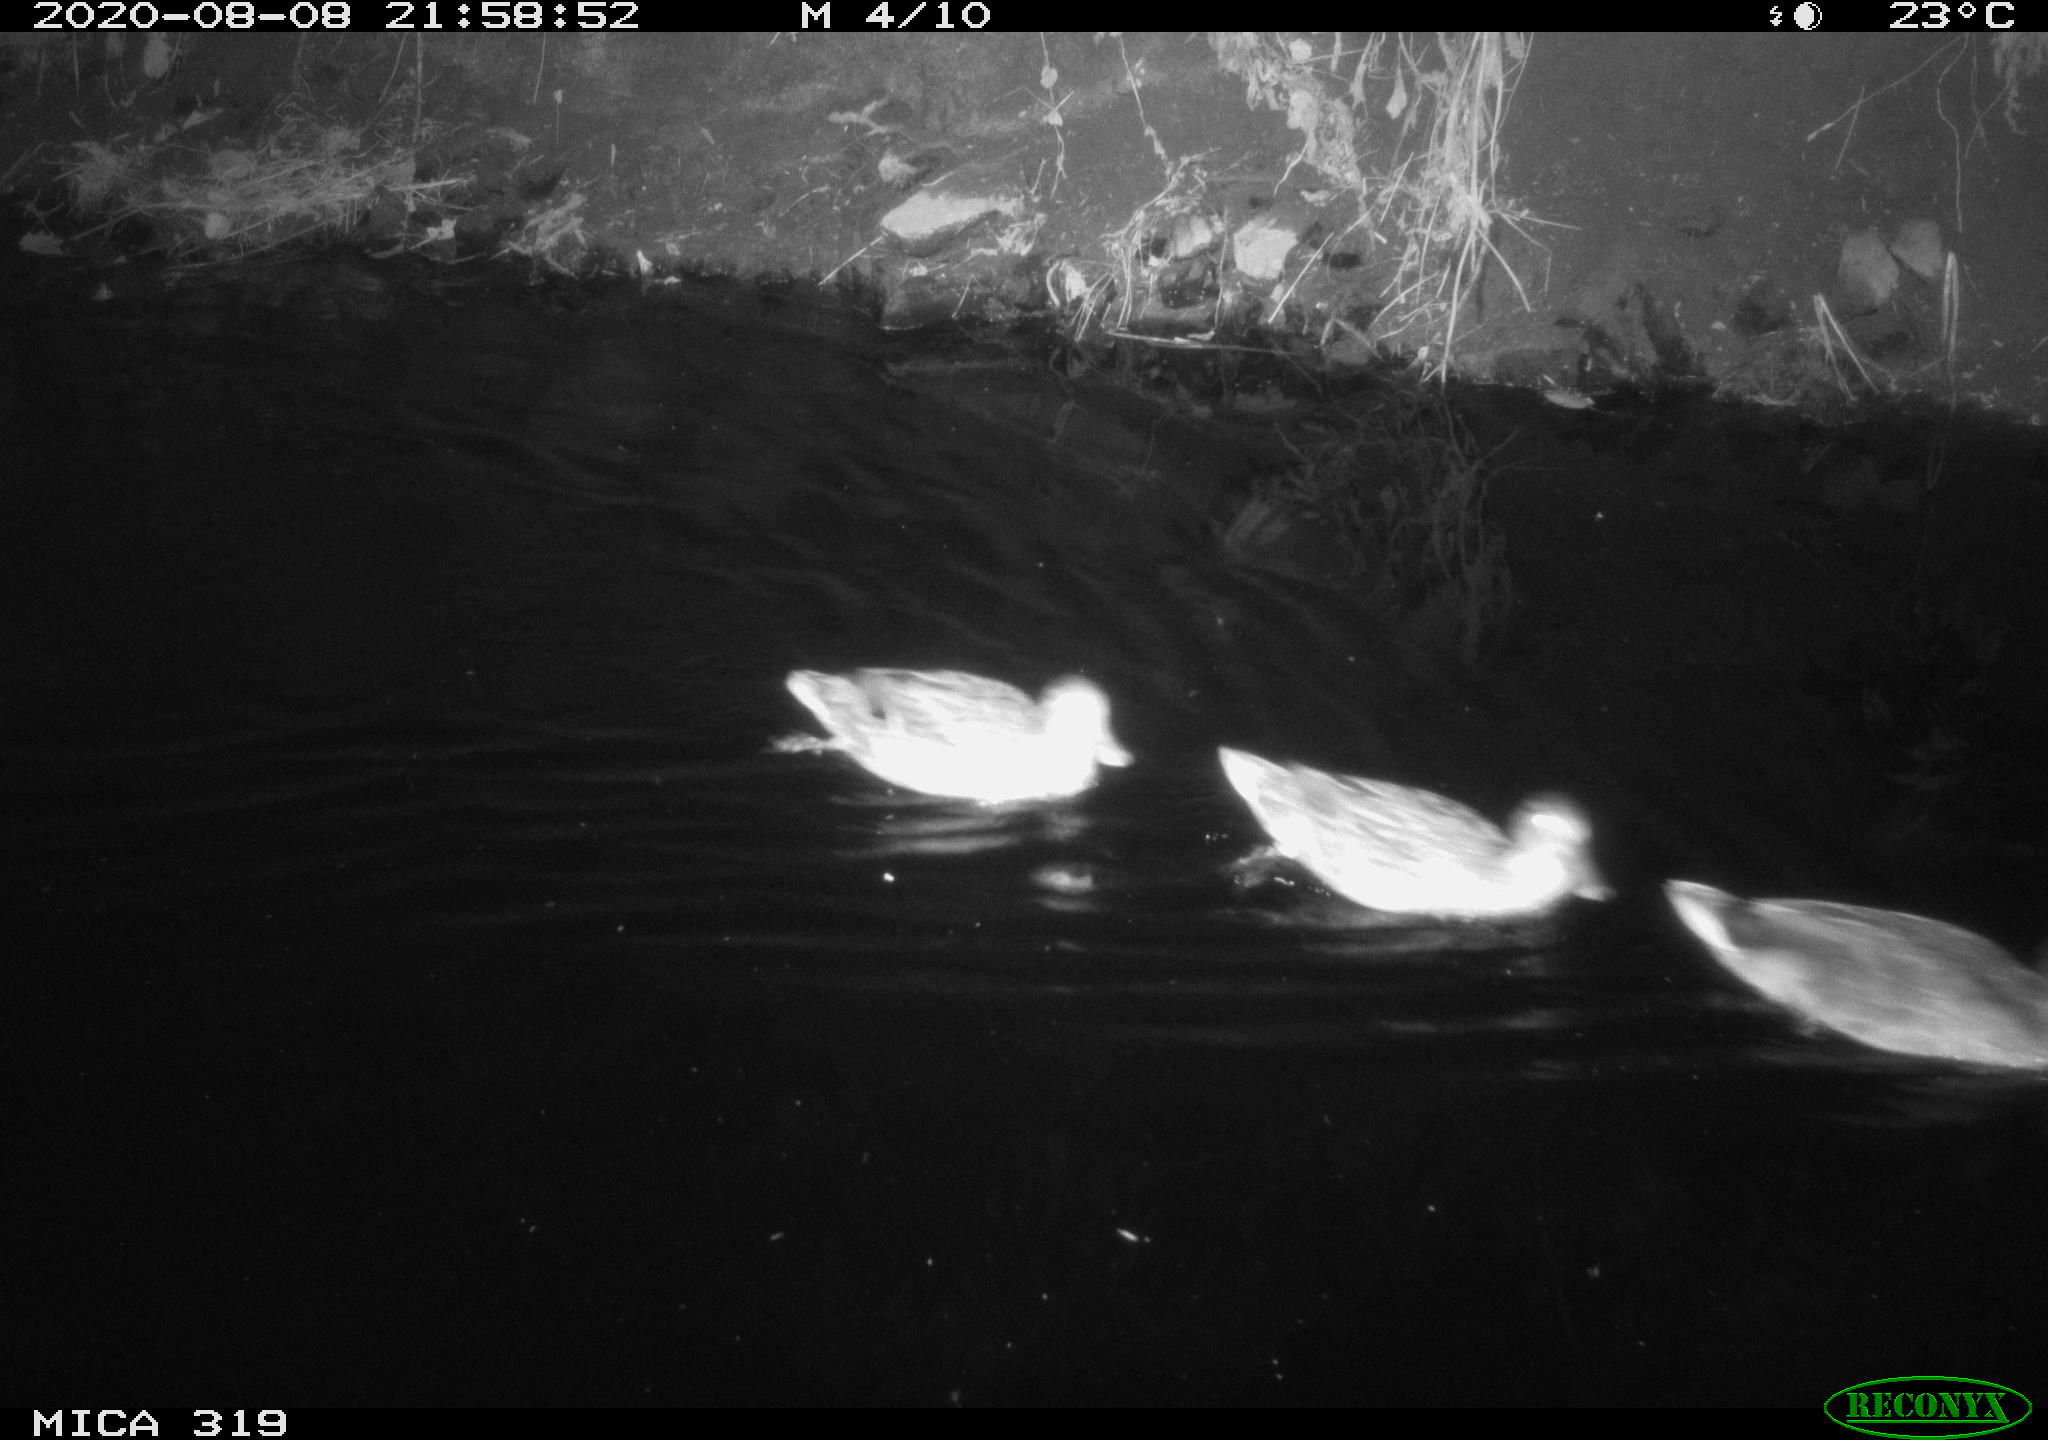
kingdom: Animalia
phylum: Chordata
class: Aves
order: Anseriformes
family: Anatidae
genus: Anas
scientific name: Anas platyrhynchos
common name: Mallard
